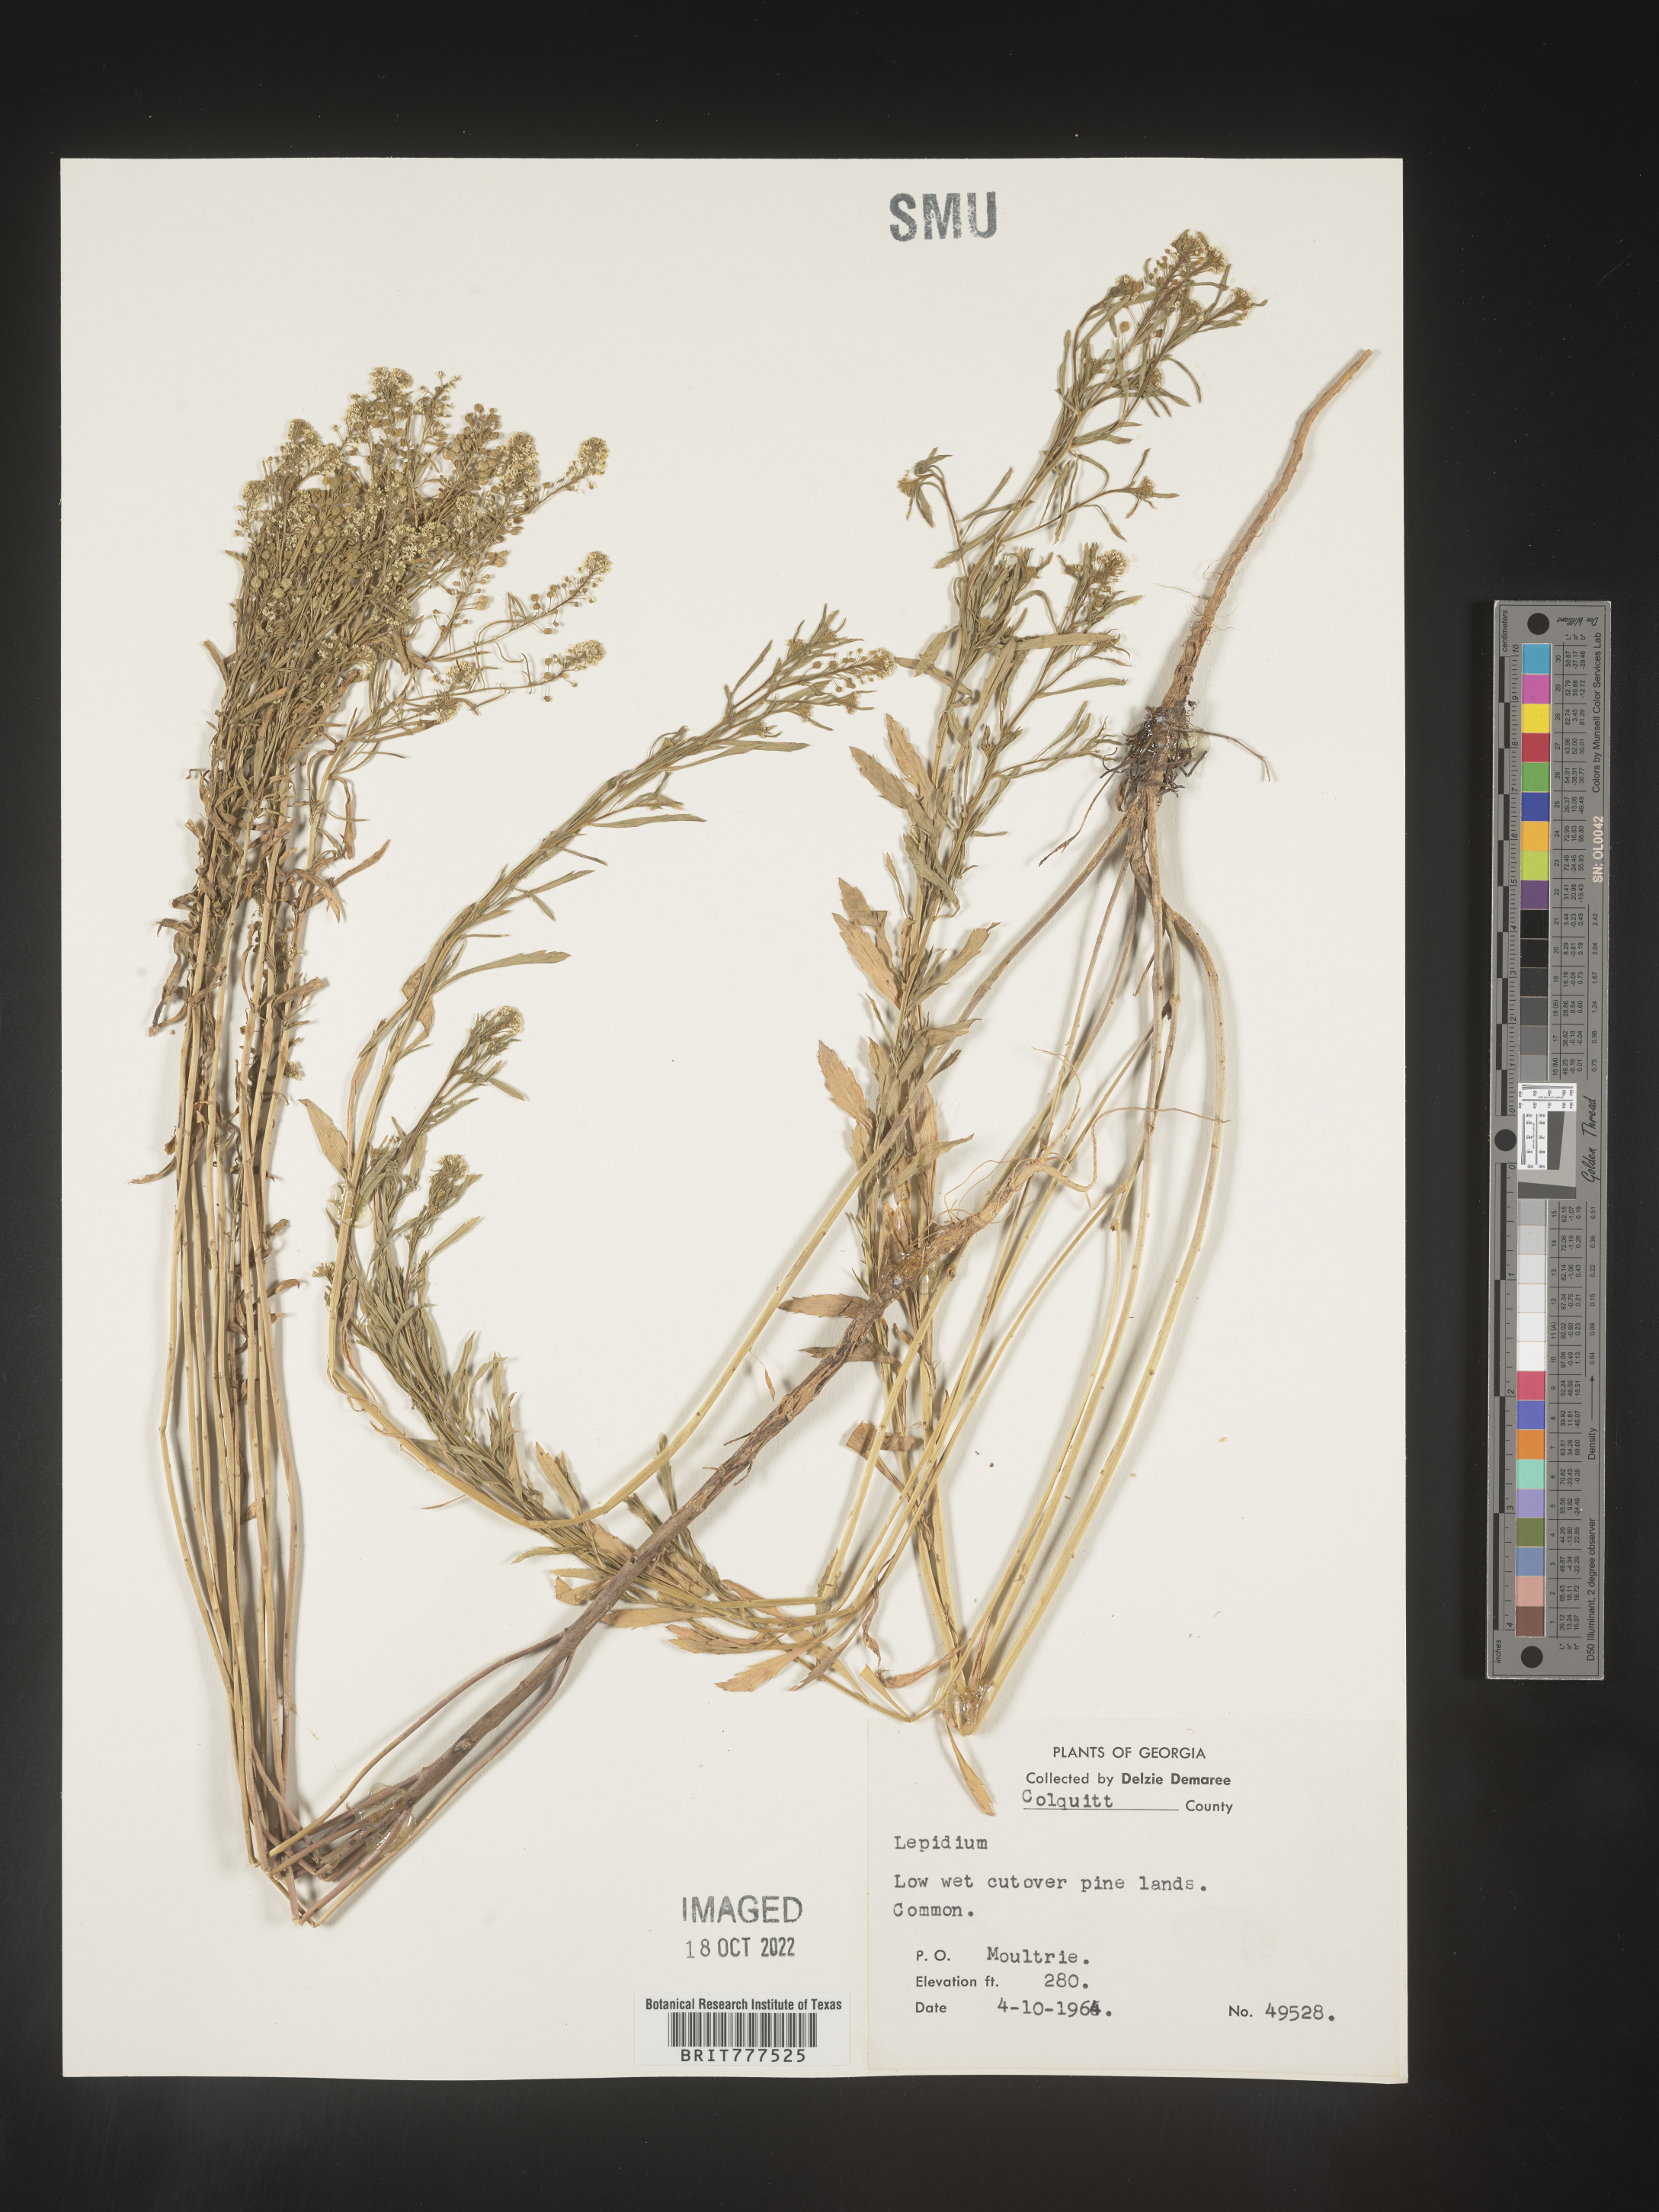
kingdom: Plantae
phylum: Tracheophyta
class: Magnoliopsida
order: Brassicales
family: Brassicaceae
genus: Lepidium
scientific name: Lepidium
